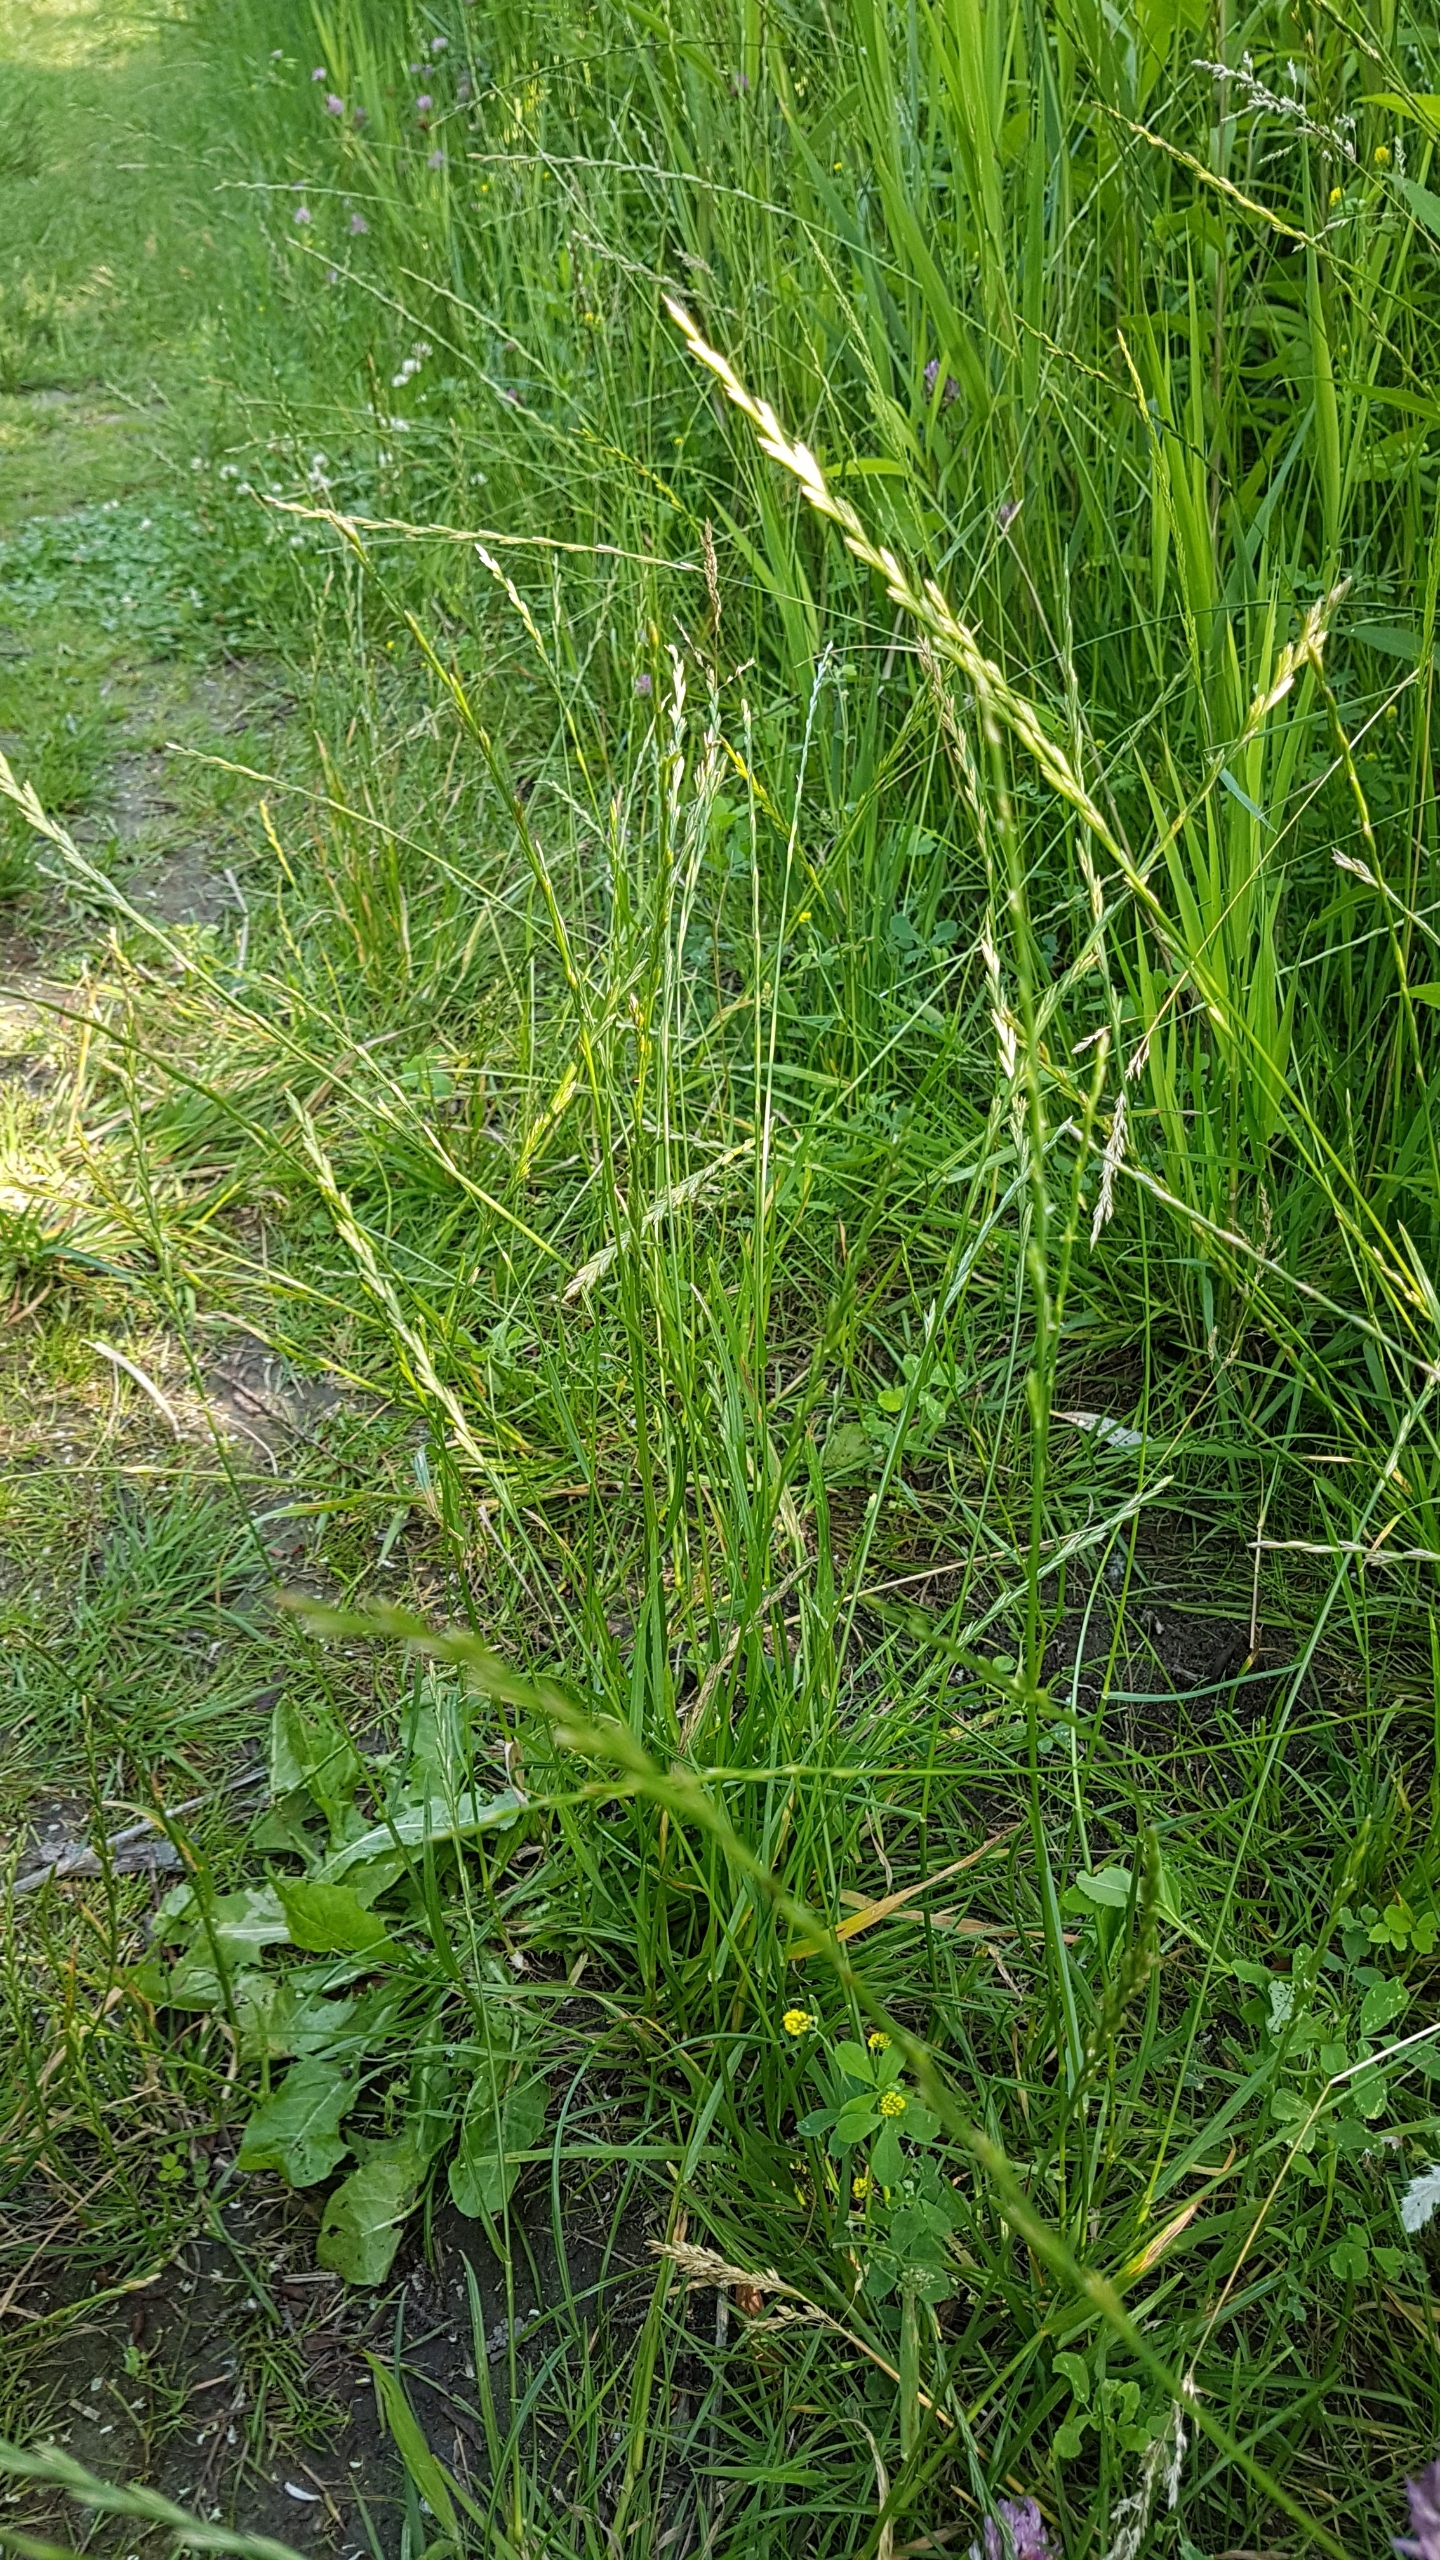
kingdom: Plantae
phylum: Tracheophyta
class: Liliopsida
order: Poales
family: Poaceae
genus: Lolium
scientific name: Lolium perenne
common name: Almindelig rajgræs
